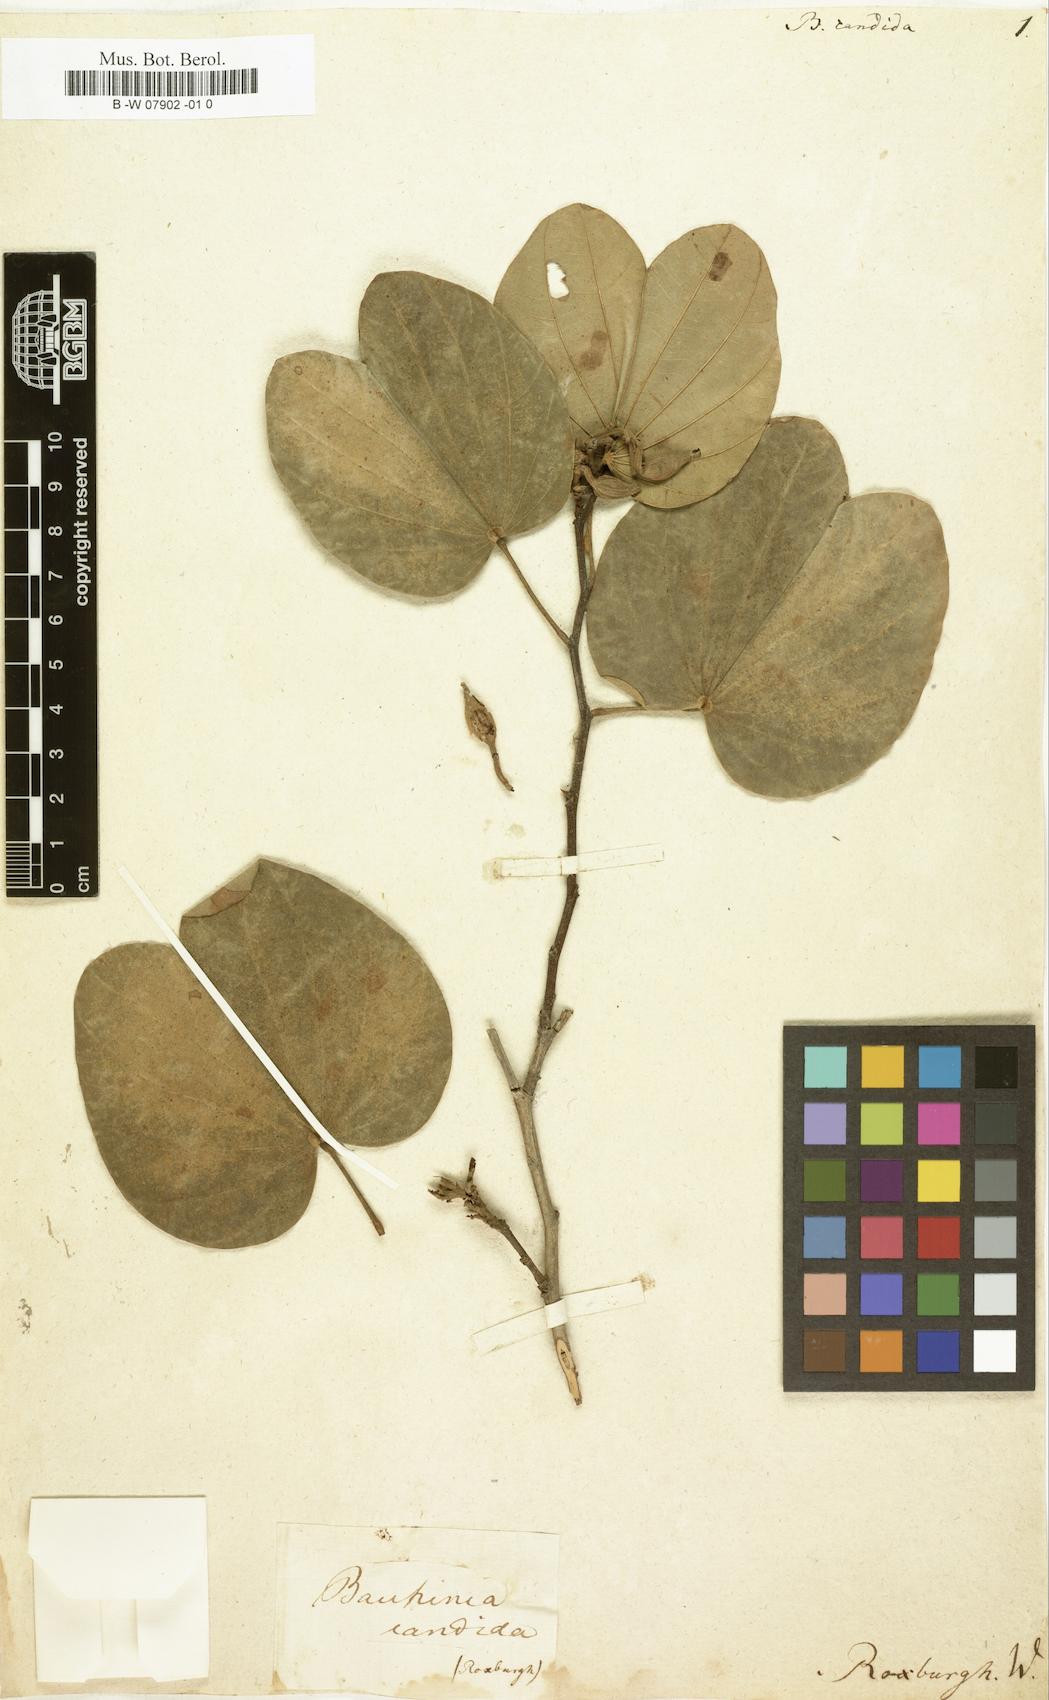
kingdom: Plantae
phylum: Tracheophyta
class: Magnoliopsida
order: Fabales
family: Fabaceae
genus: Bauhinia
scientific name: Bauhinia variegata
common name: Mountain ebony
